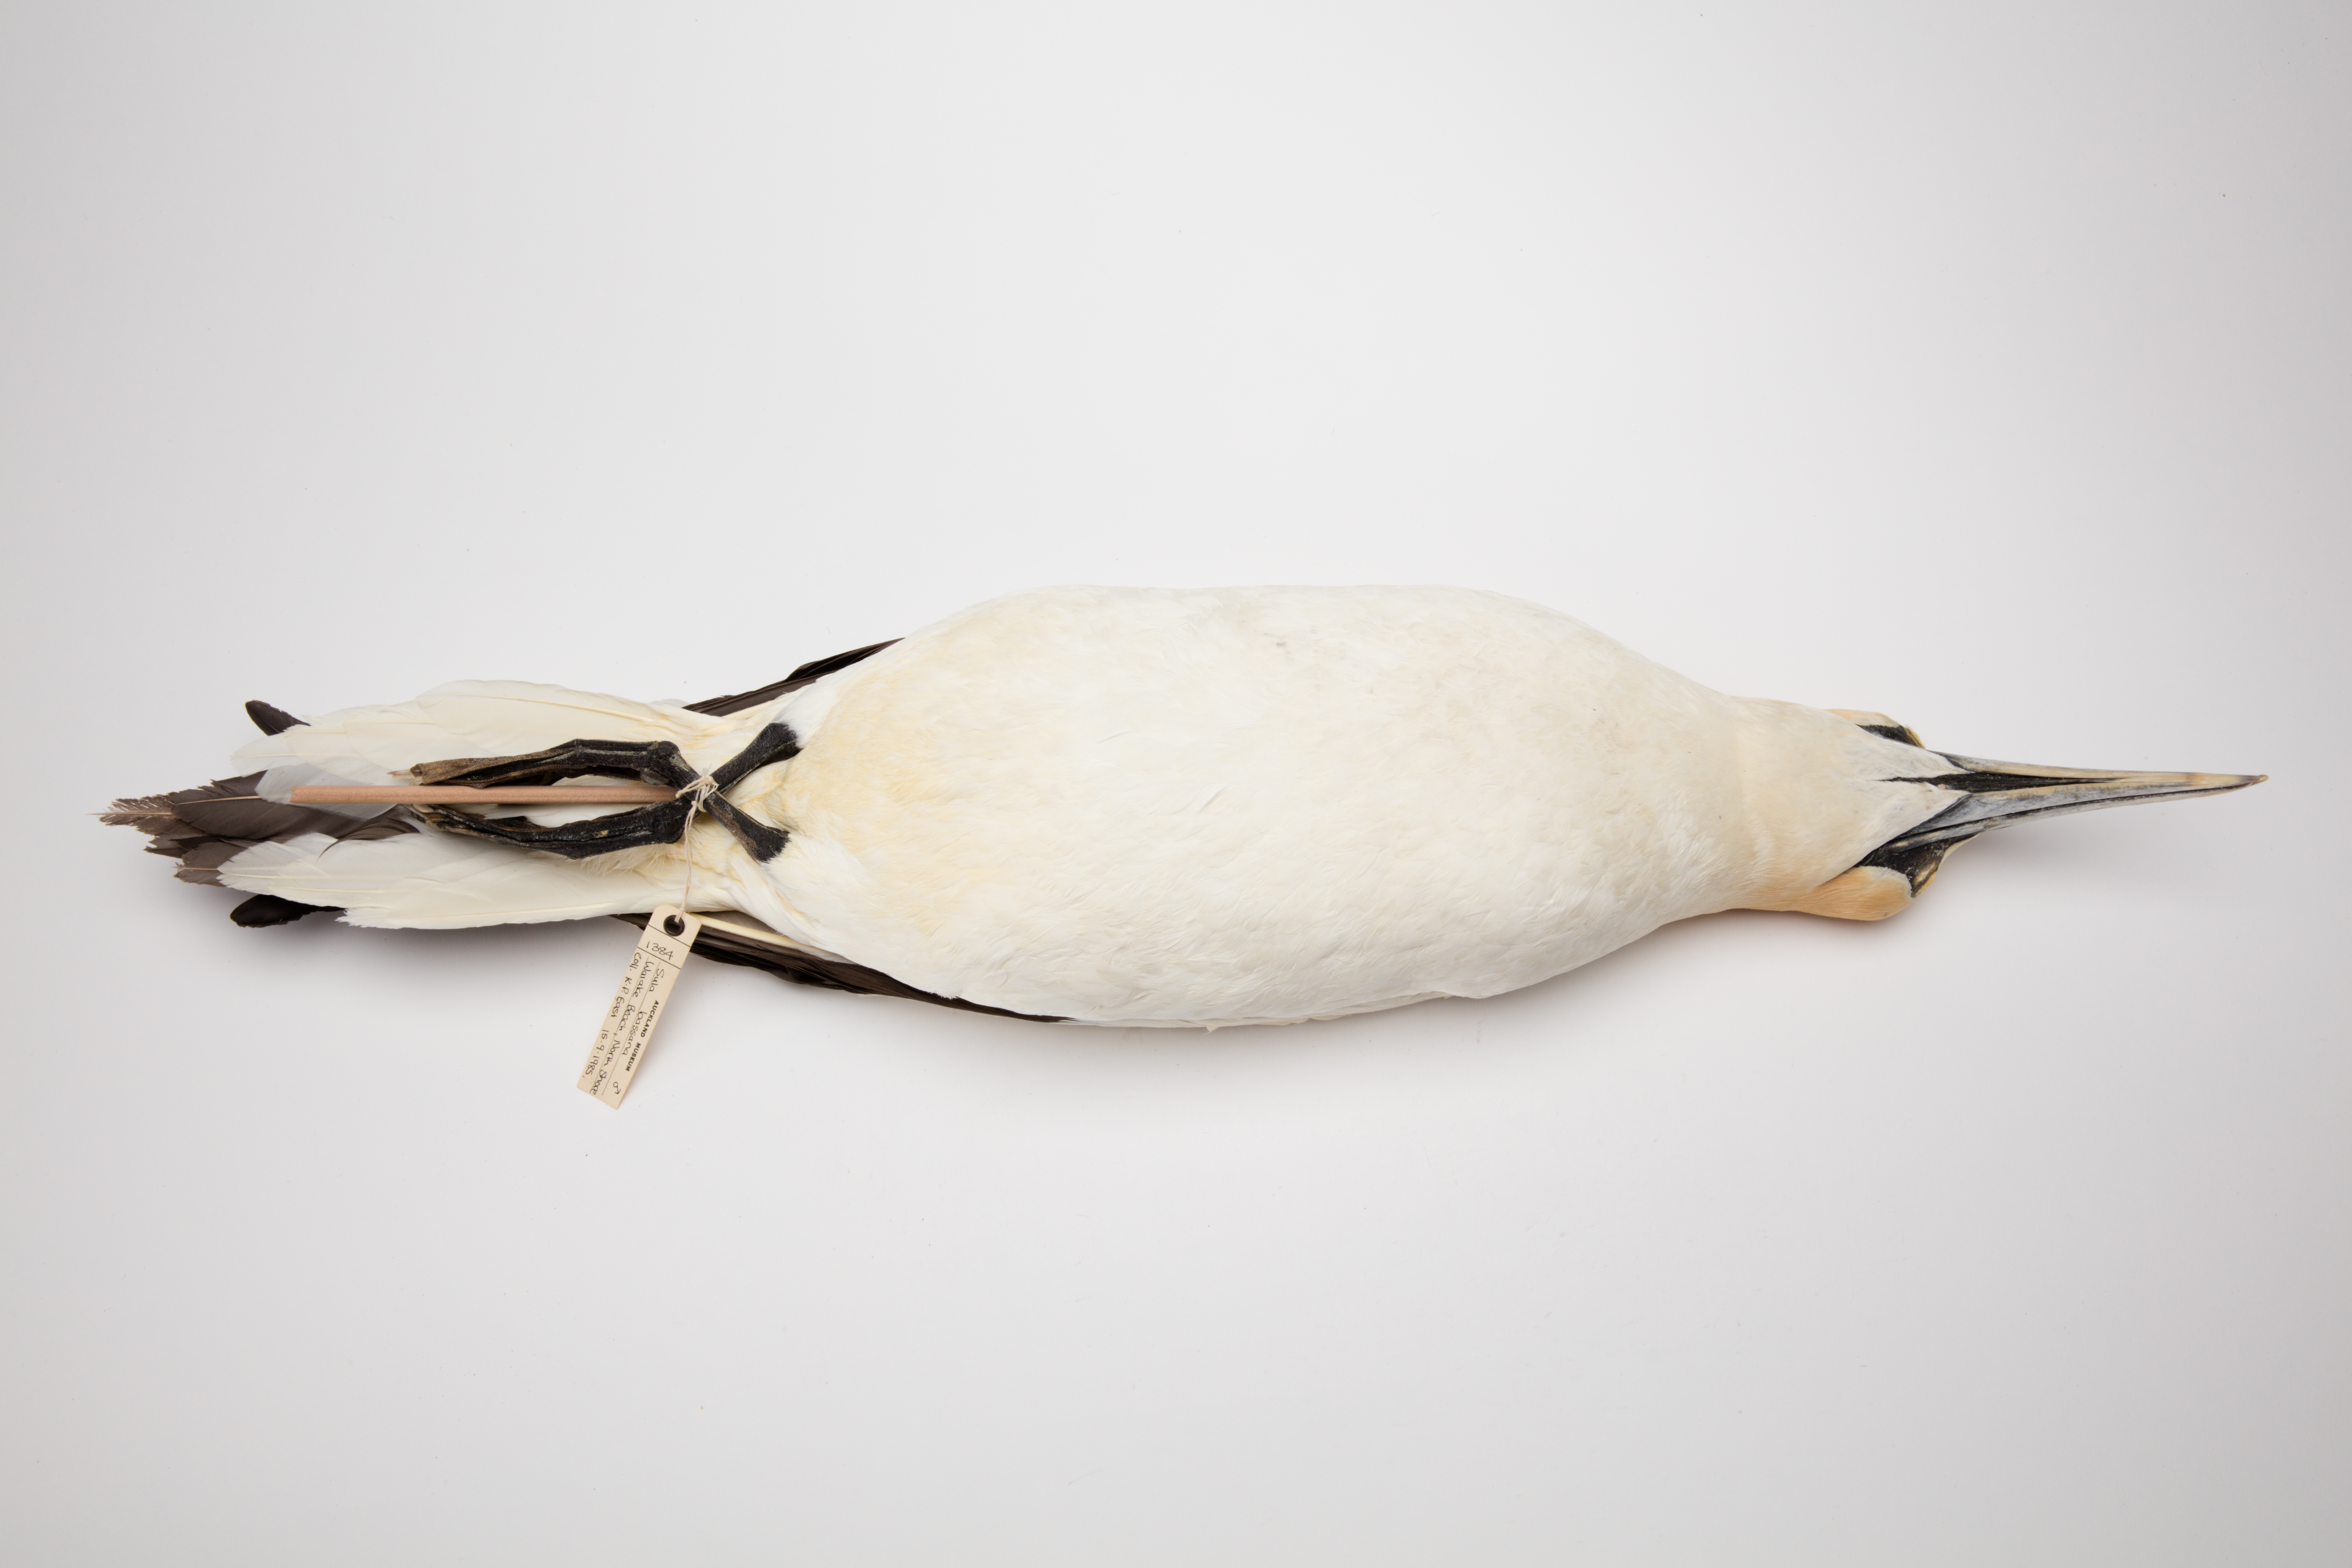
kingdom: Animalia
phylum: Chordata
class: Aves
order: Suliformes
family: Sulidae
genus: Morus
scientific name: Morus serrator
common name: Australasian gannet
